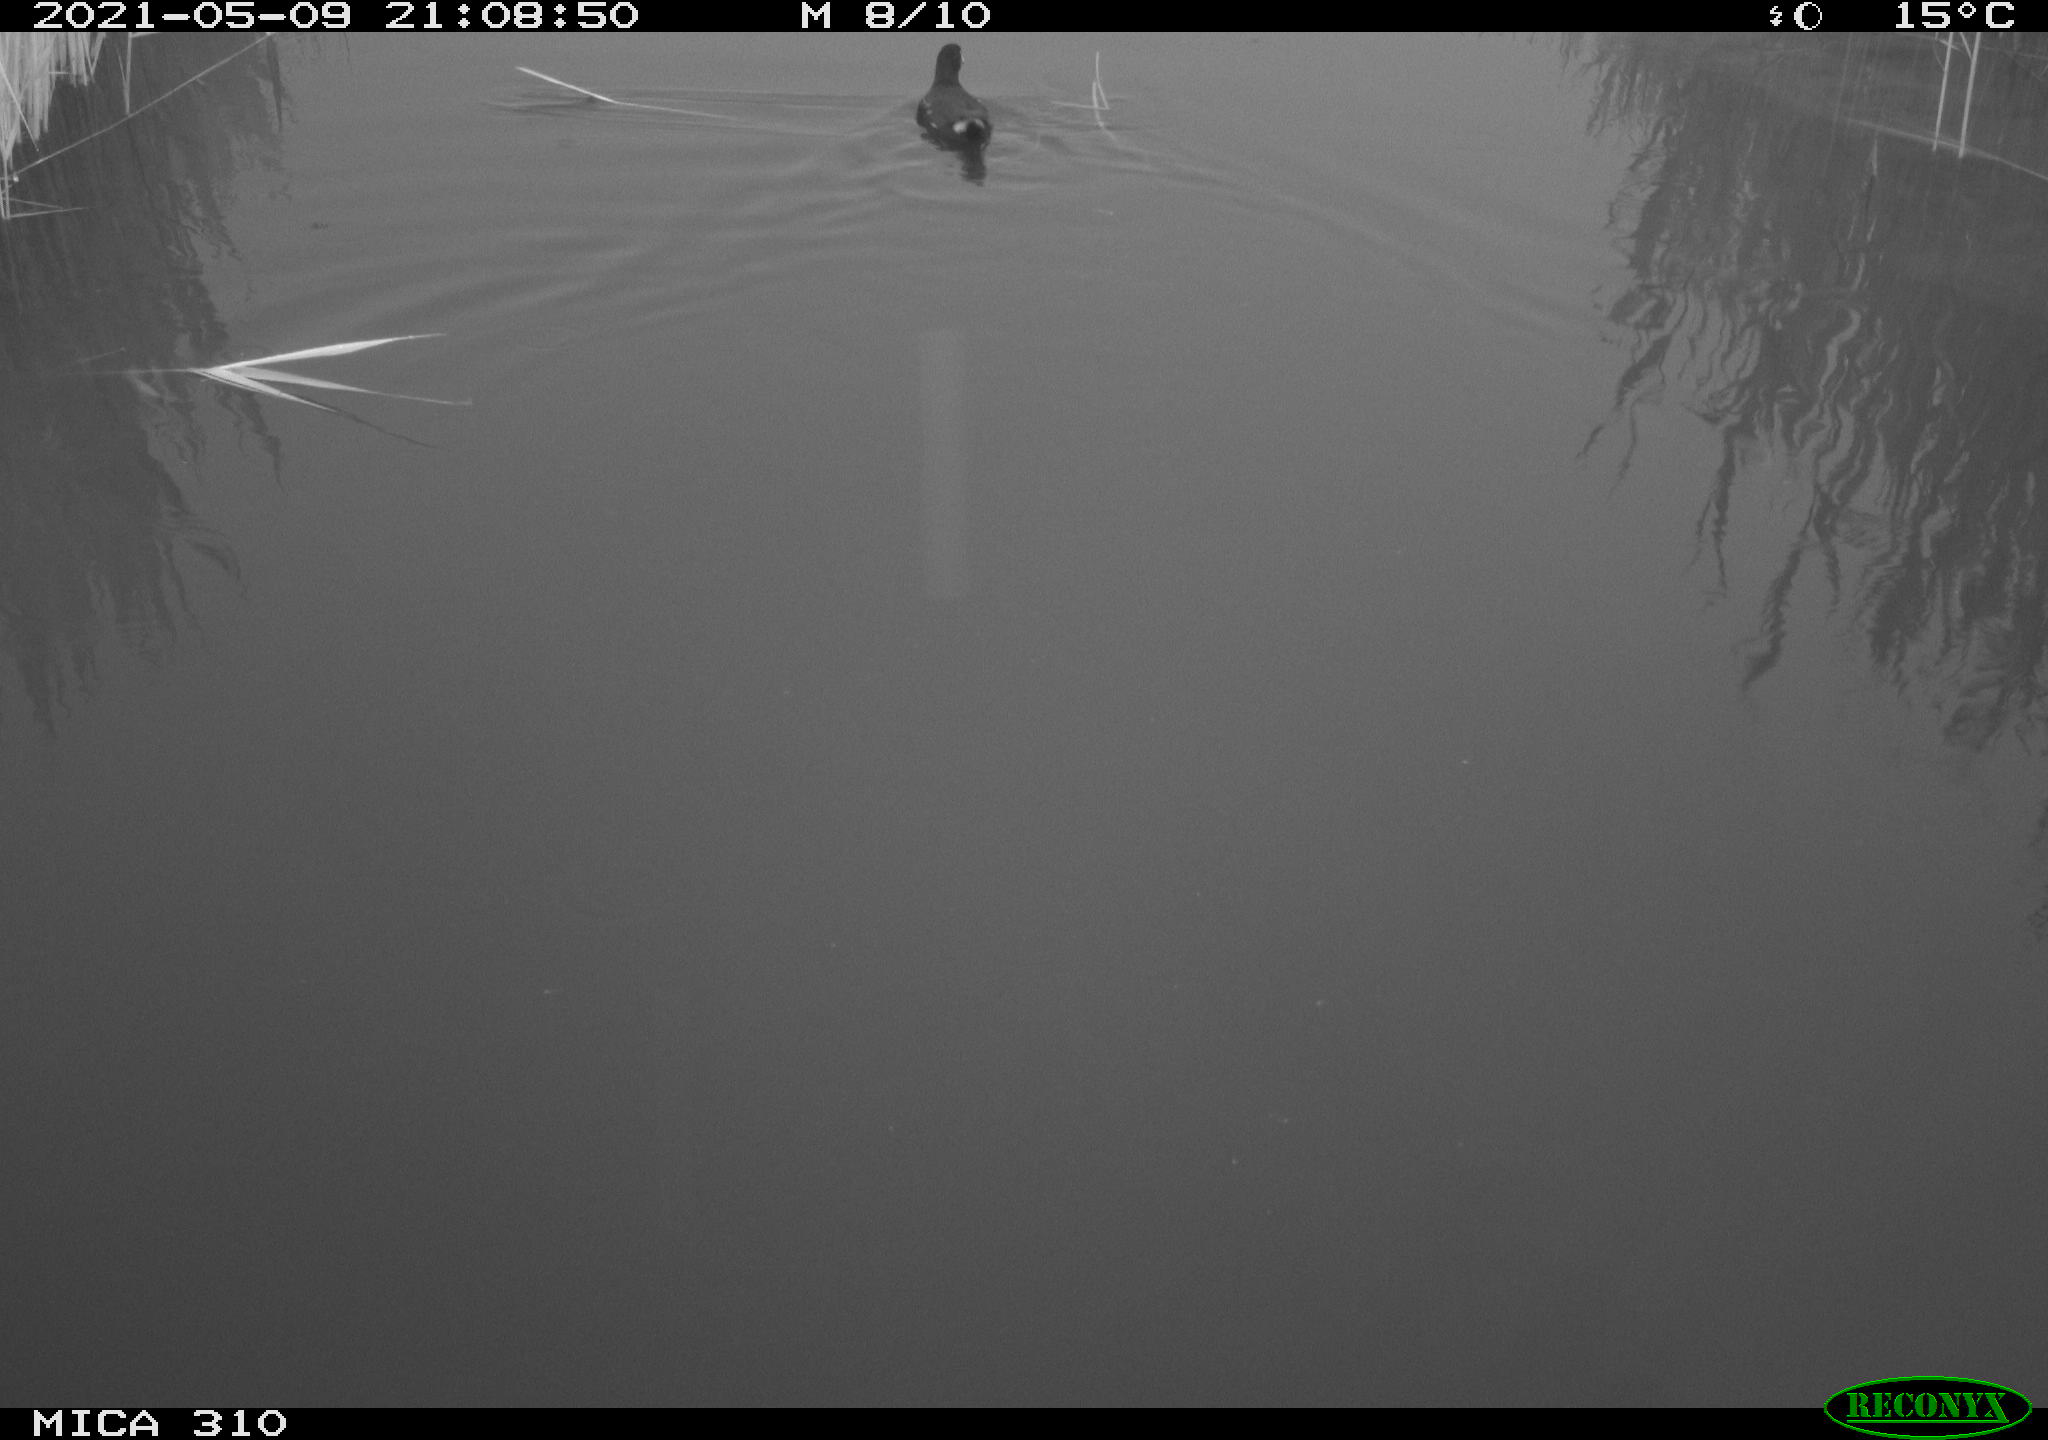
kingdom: Animalia
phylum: Chordata
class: Aves
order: Gruiformes
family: Rallidae
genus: Gallinula
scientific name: Gallinula chloropus
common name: Common moorhen
